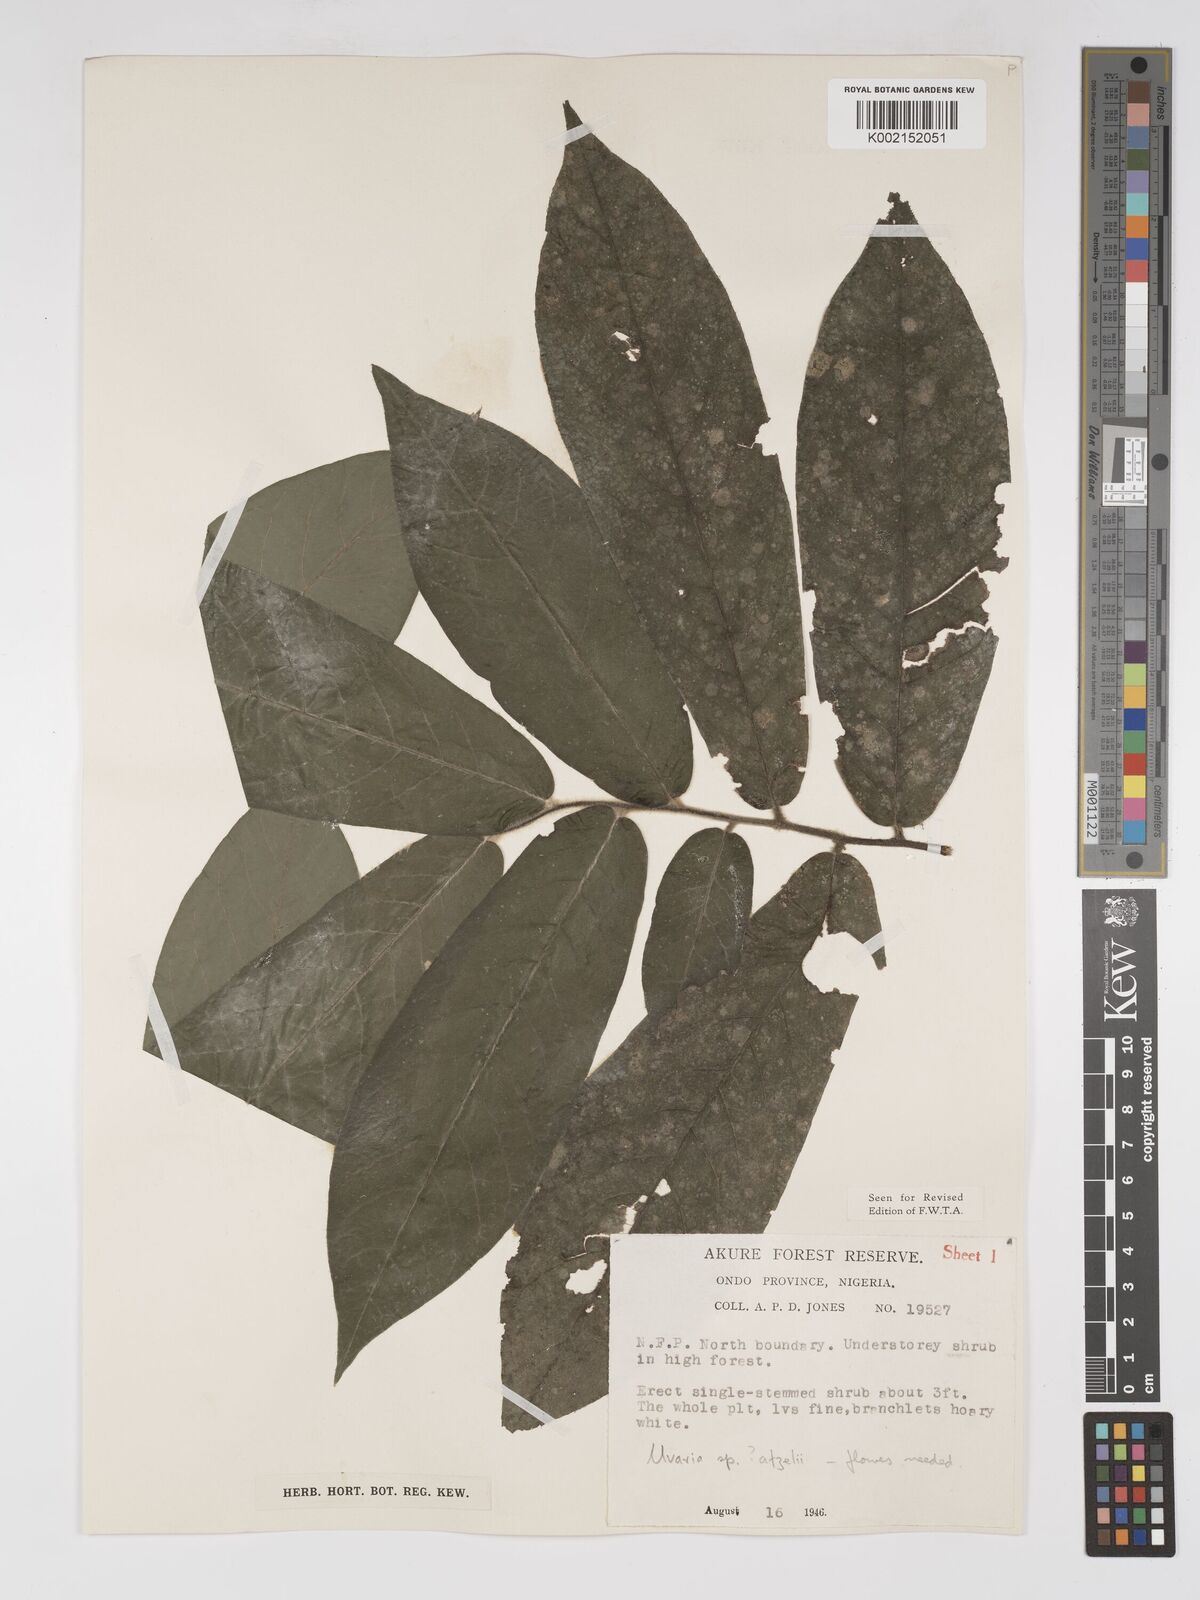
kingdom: Plantae
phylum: Tracheophyta
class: Magnoliopsida
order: Magnoliales
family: Annonaceae
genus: Uvaria
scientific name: Uvaria afzelii
